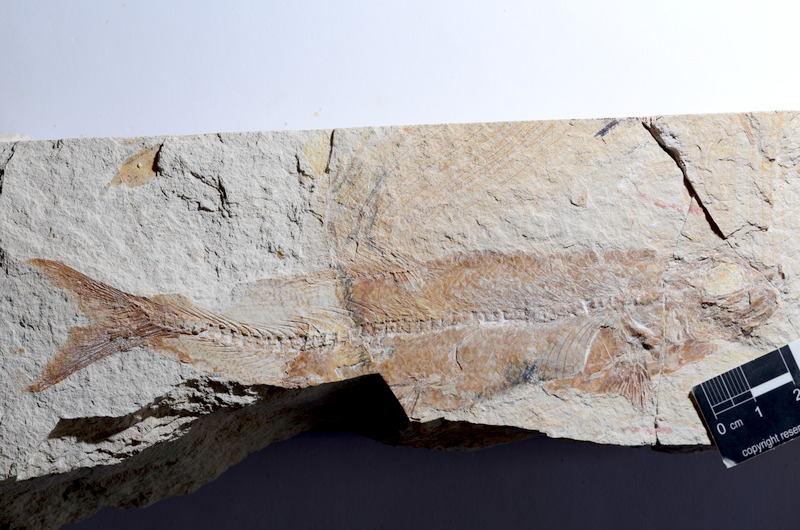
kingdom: Animalia
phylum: Chordata
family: Ascalaboidae
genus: Tharsis
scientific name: Tharsis dubius
